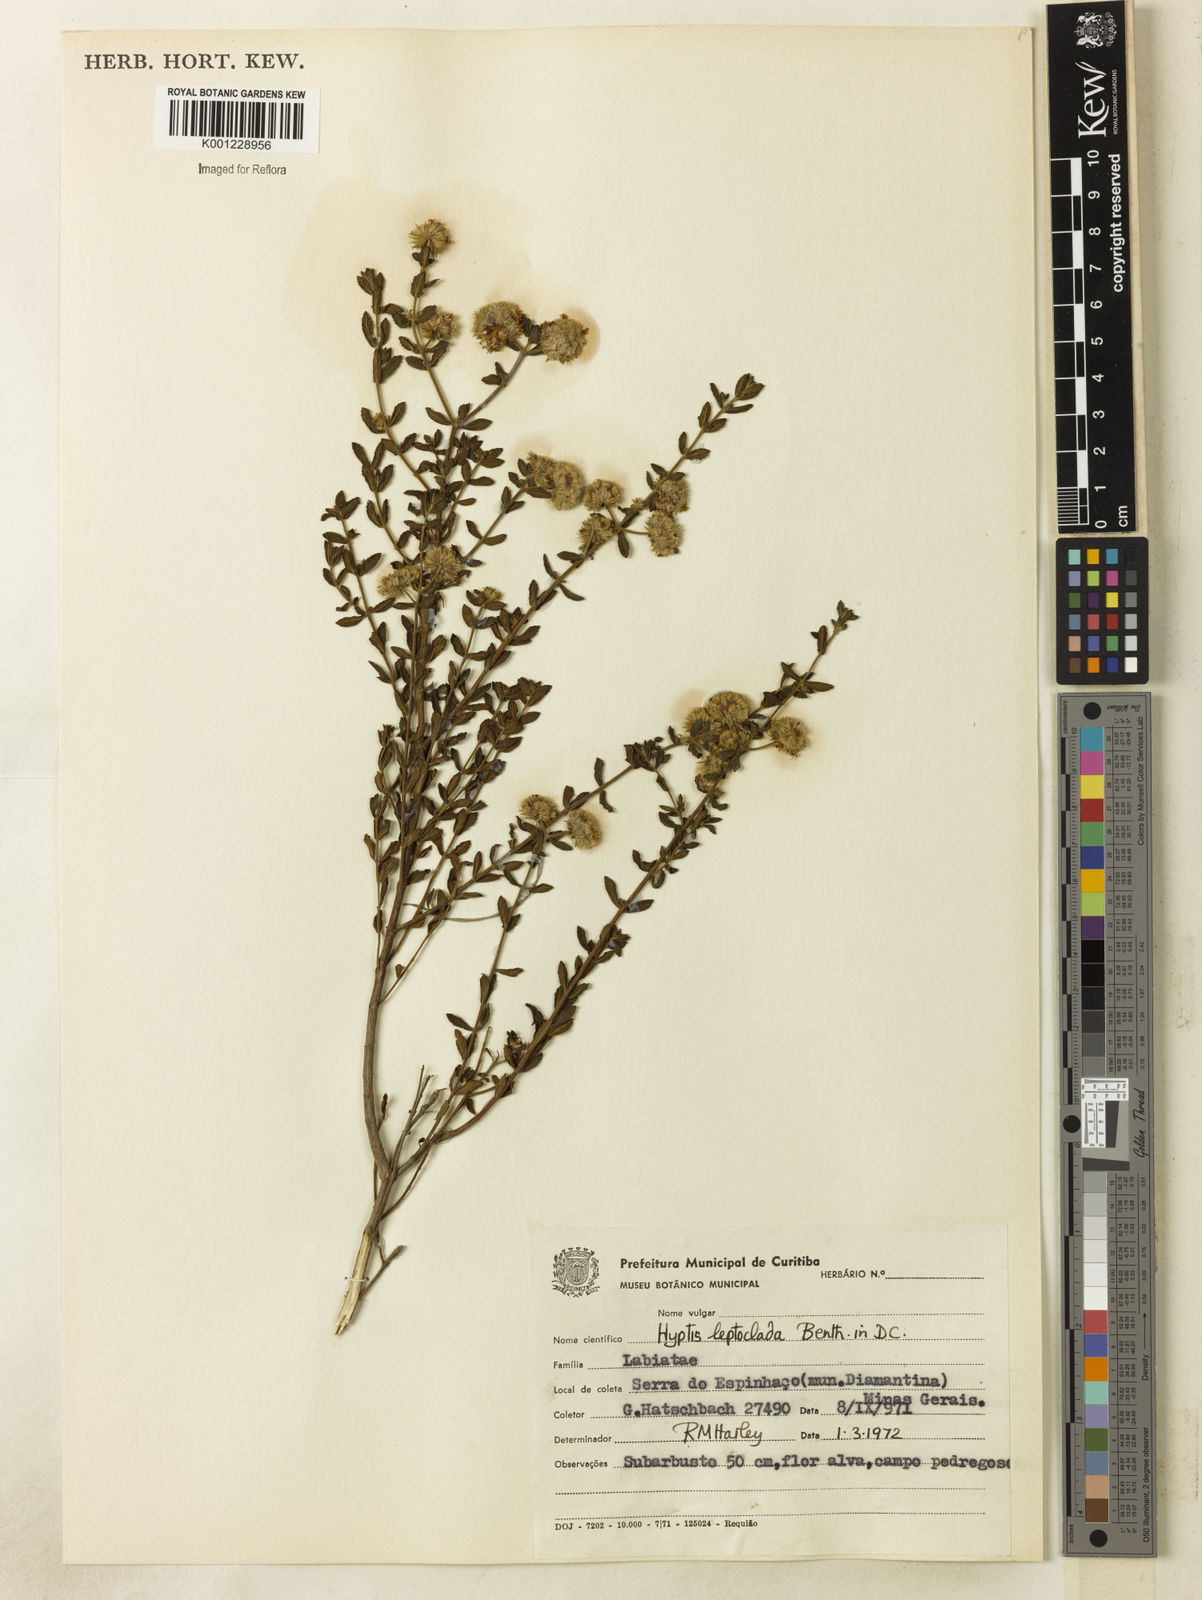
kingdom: Plantae
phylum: Tracheophyta
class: Magnoliopsida
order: Lamiales
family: Lamiaceae
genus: Hyptis
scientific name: Hyptis leptoclada
